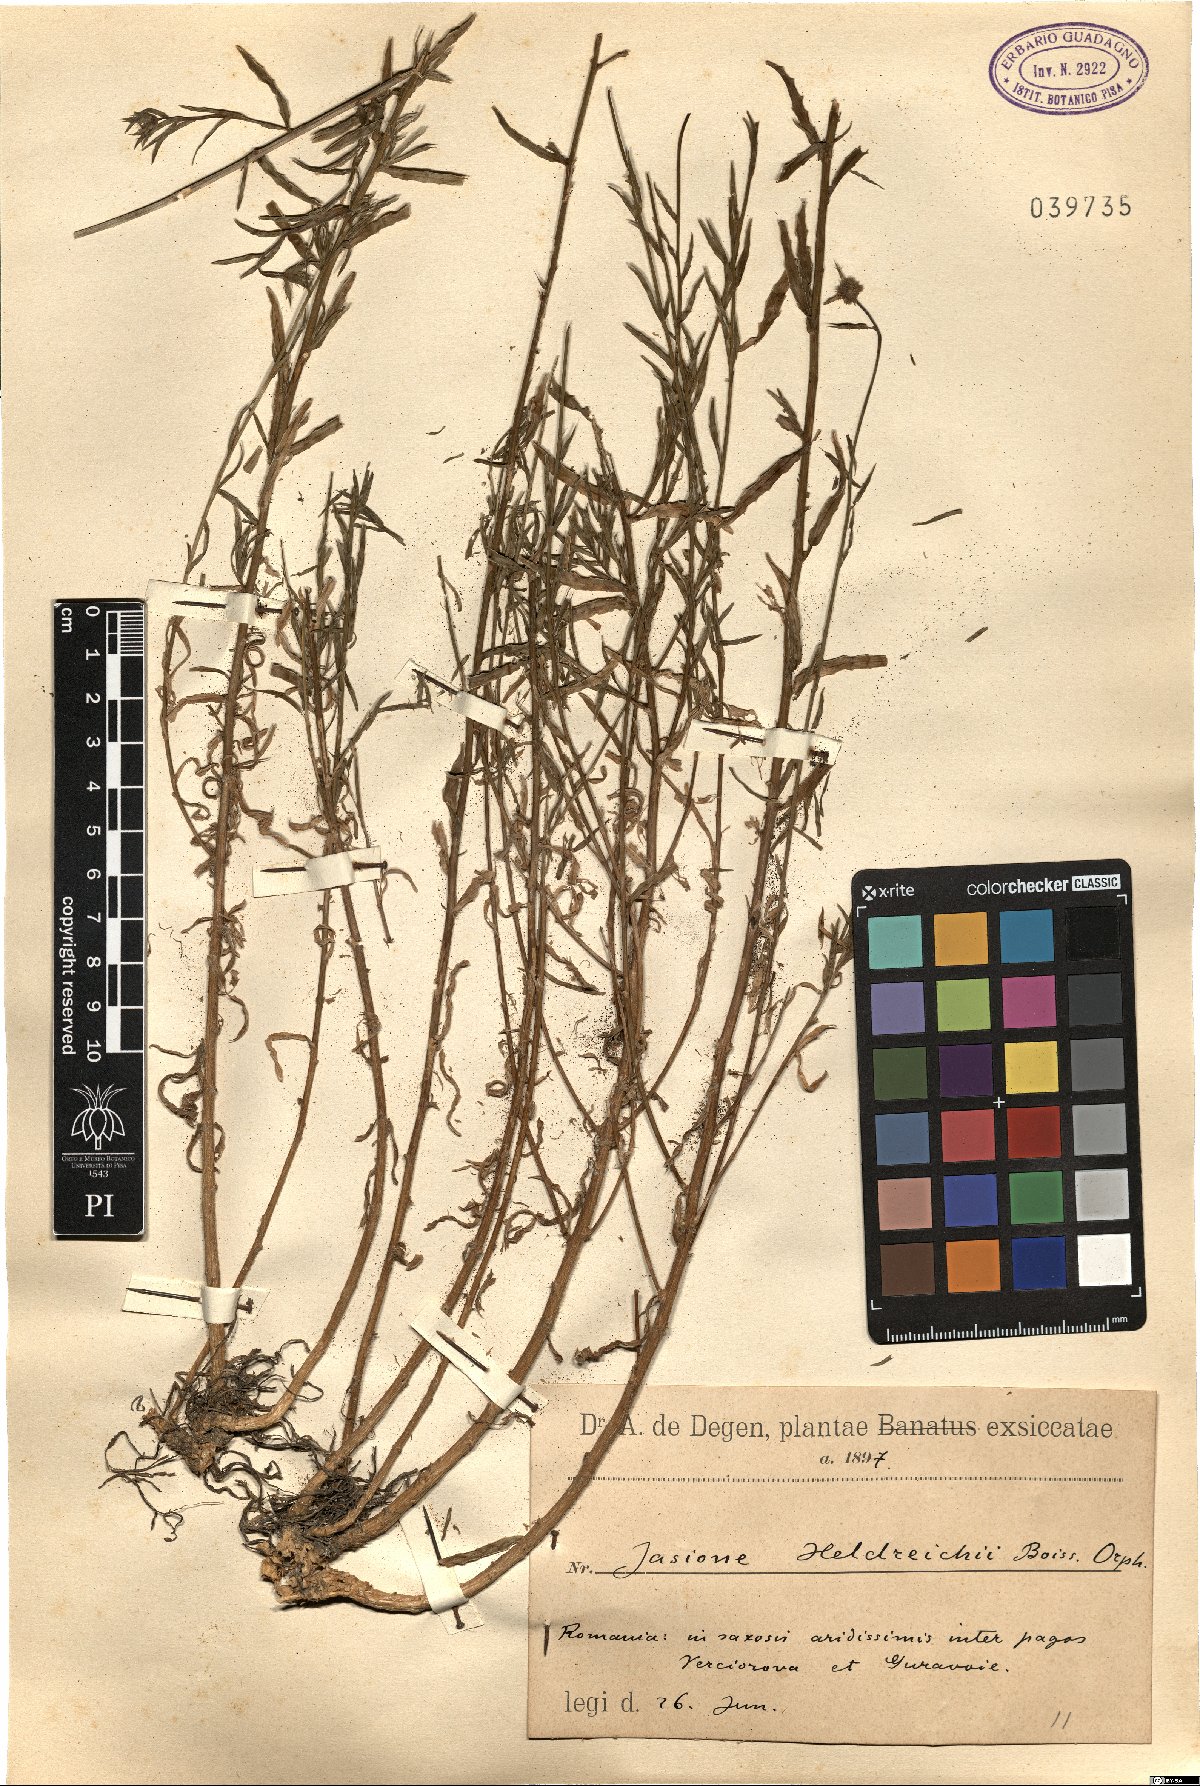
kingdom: Plantae
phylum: Tracheophyta
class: Magnoliopsida
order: Asterales
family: Campanulaceae
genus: Jasione
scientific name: Jasione heldreichii
